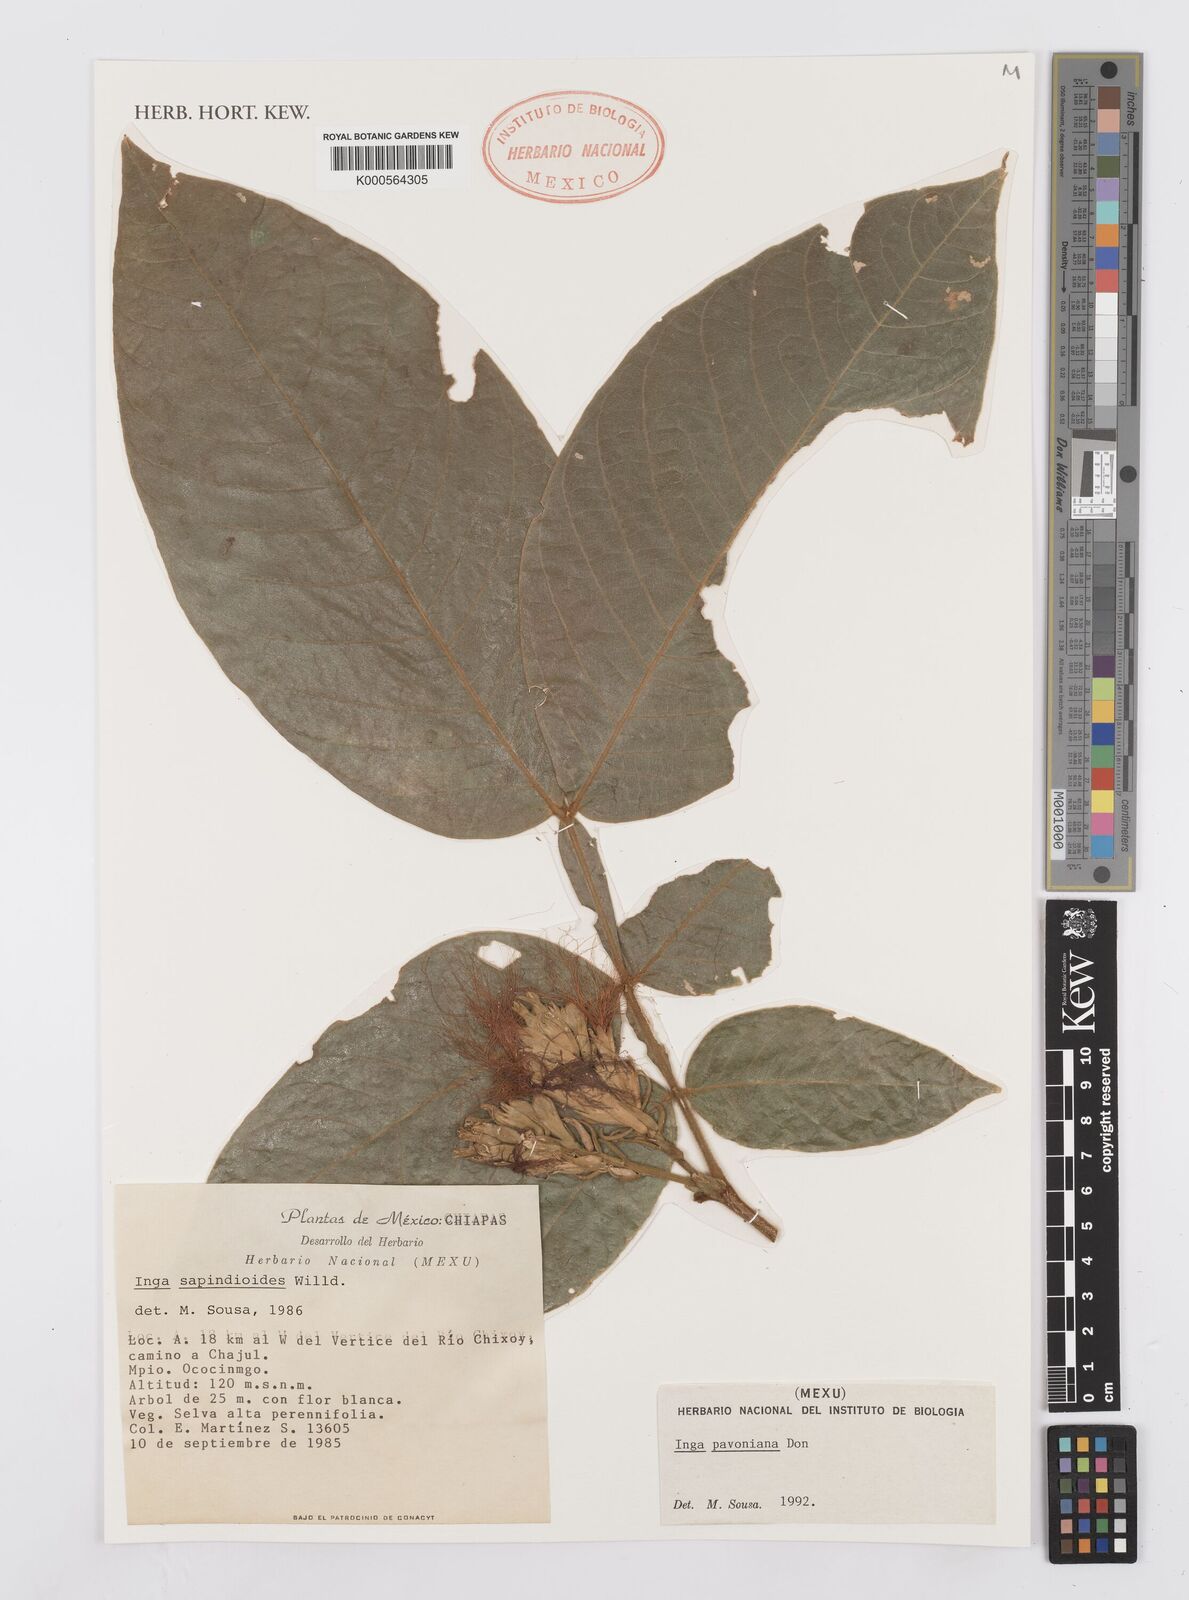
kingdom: Plantae
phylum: Tracheophyta
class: Magnoliopsida
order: Fabales
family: Fabaceae
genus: Inga
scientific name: Inga sapindoides
